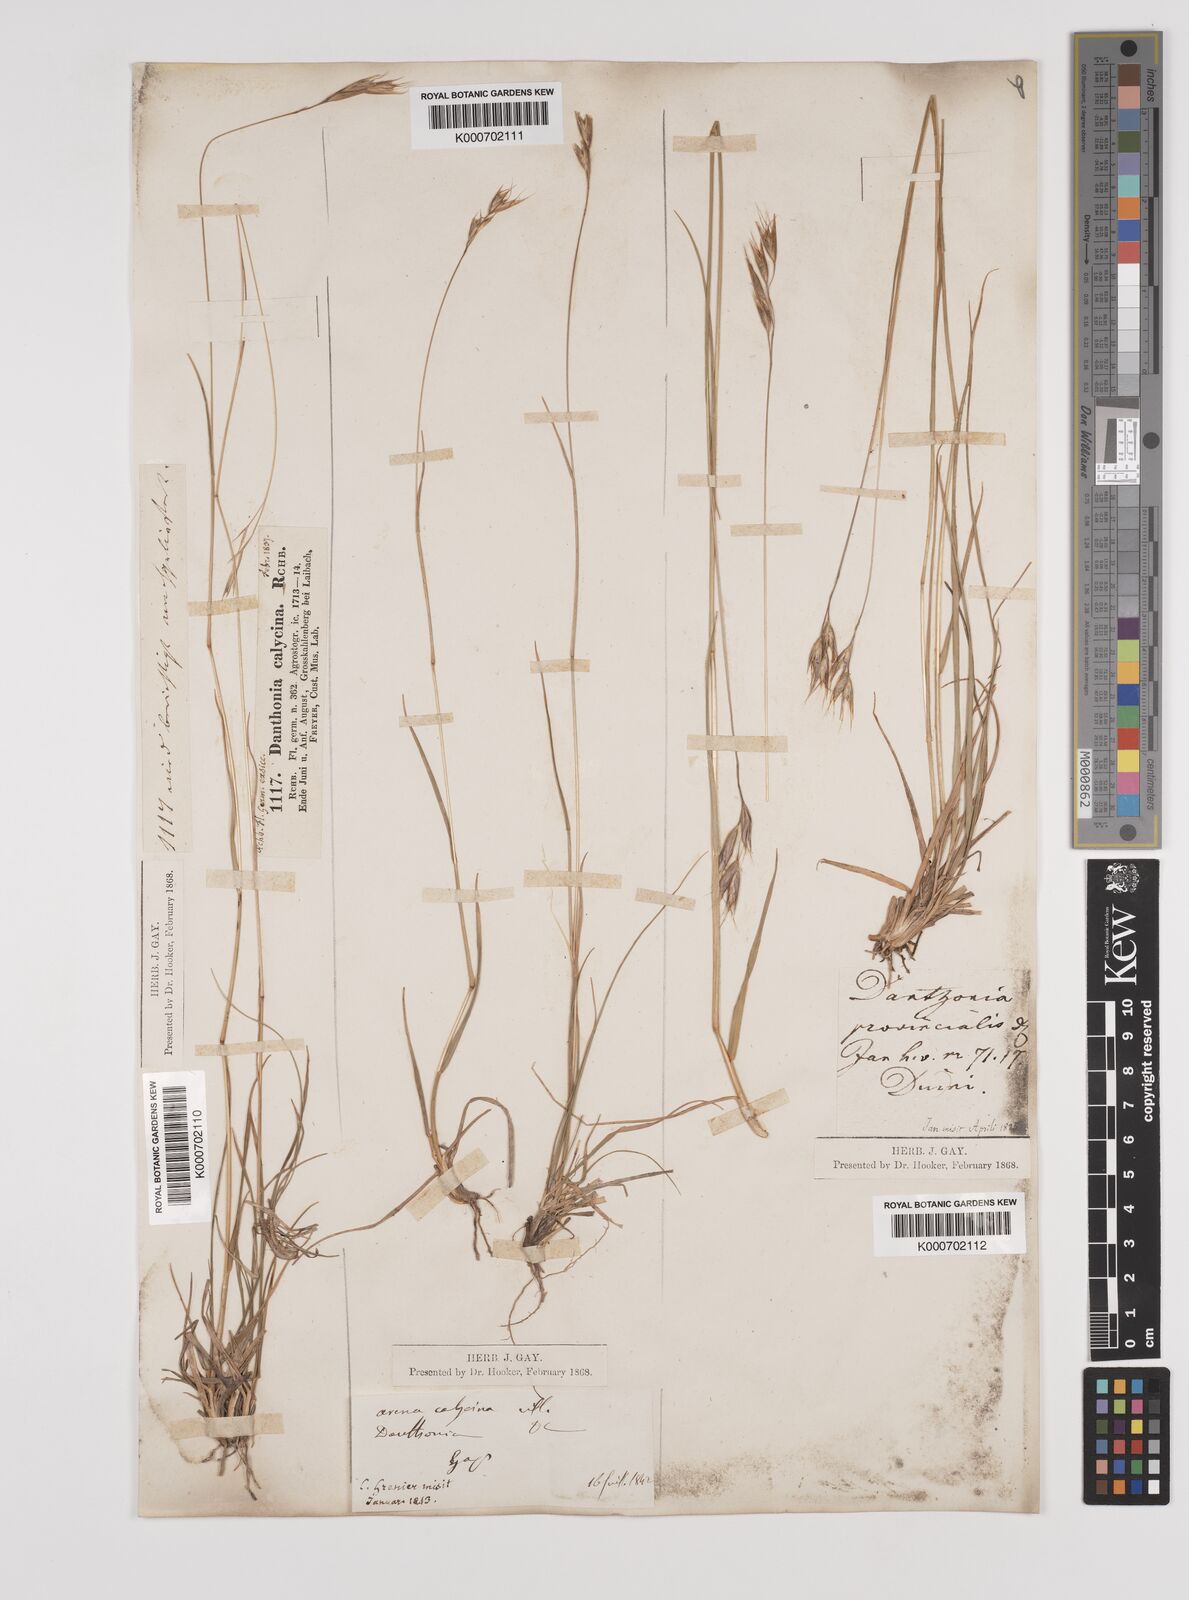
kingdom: Plantae
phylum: Tracheophyta
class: Liliopsida
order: Poales
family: Poaceae
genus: Danthonia
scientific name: Danthonia alpina
